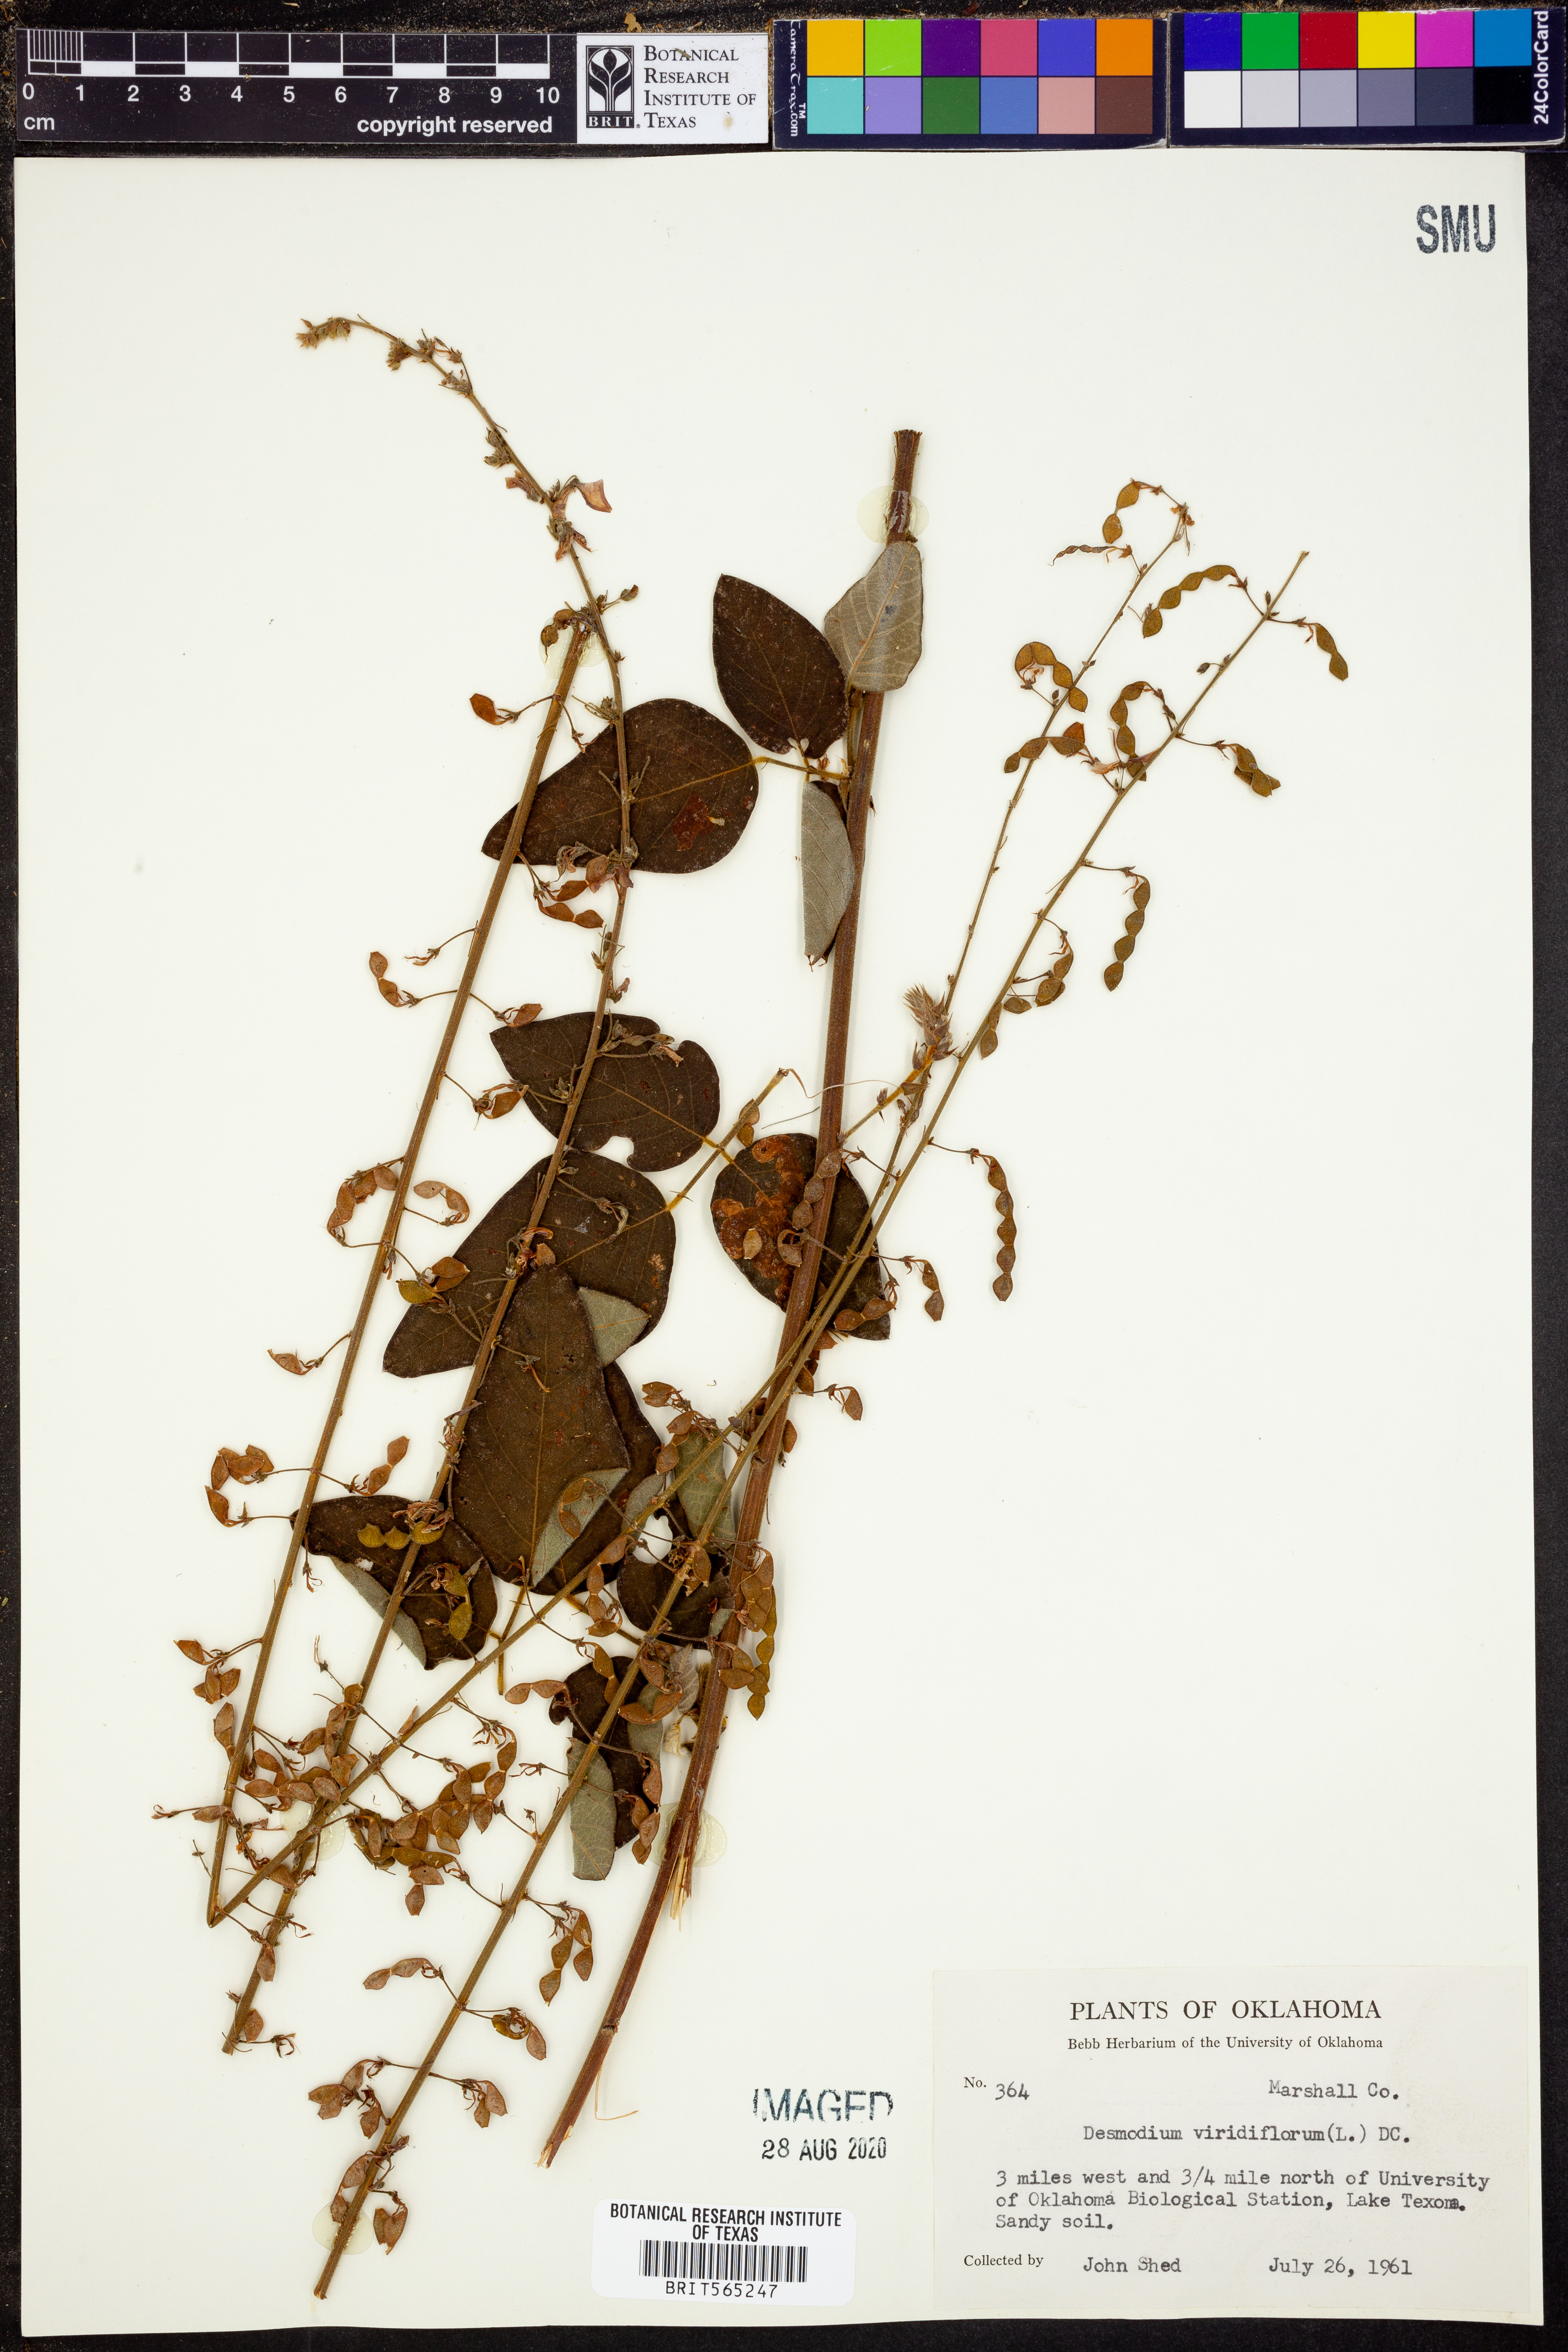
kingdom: Plantae
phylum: Tracheophyta
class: Magnoliopsida
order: Fabales
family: Fabaceae
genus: Desmodium
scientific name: Desmodium viridiflorum
